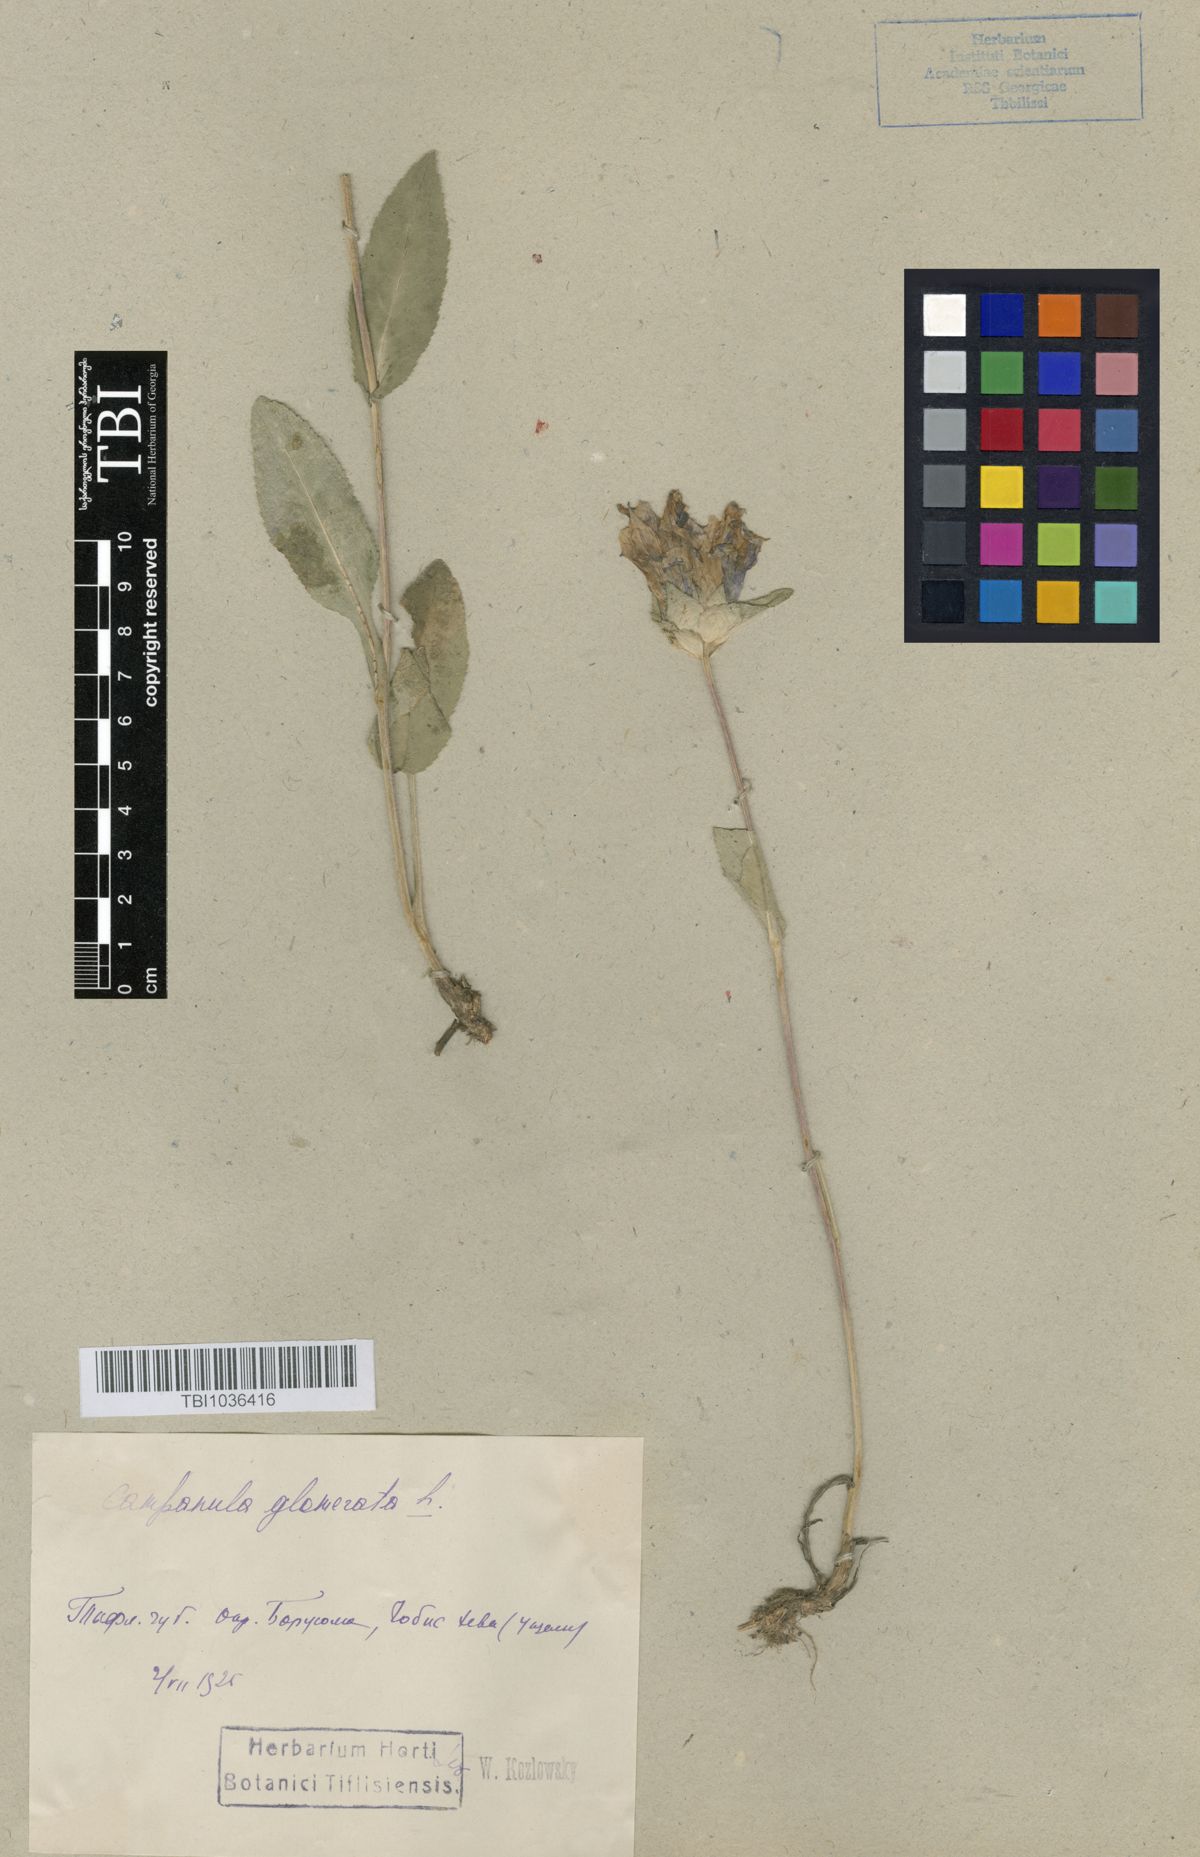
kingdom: Plantae
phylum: Tracheophyta
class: Magnoliopsida
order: Asterales
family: Campanulaceae
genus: Campanula
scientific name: Campanula glomerata
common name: Clustered bellflower
